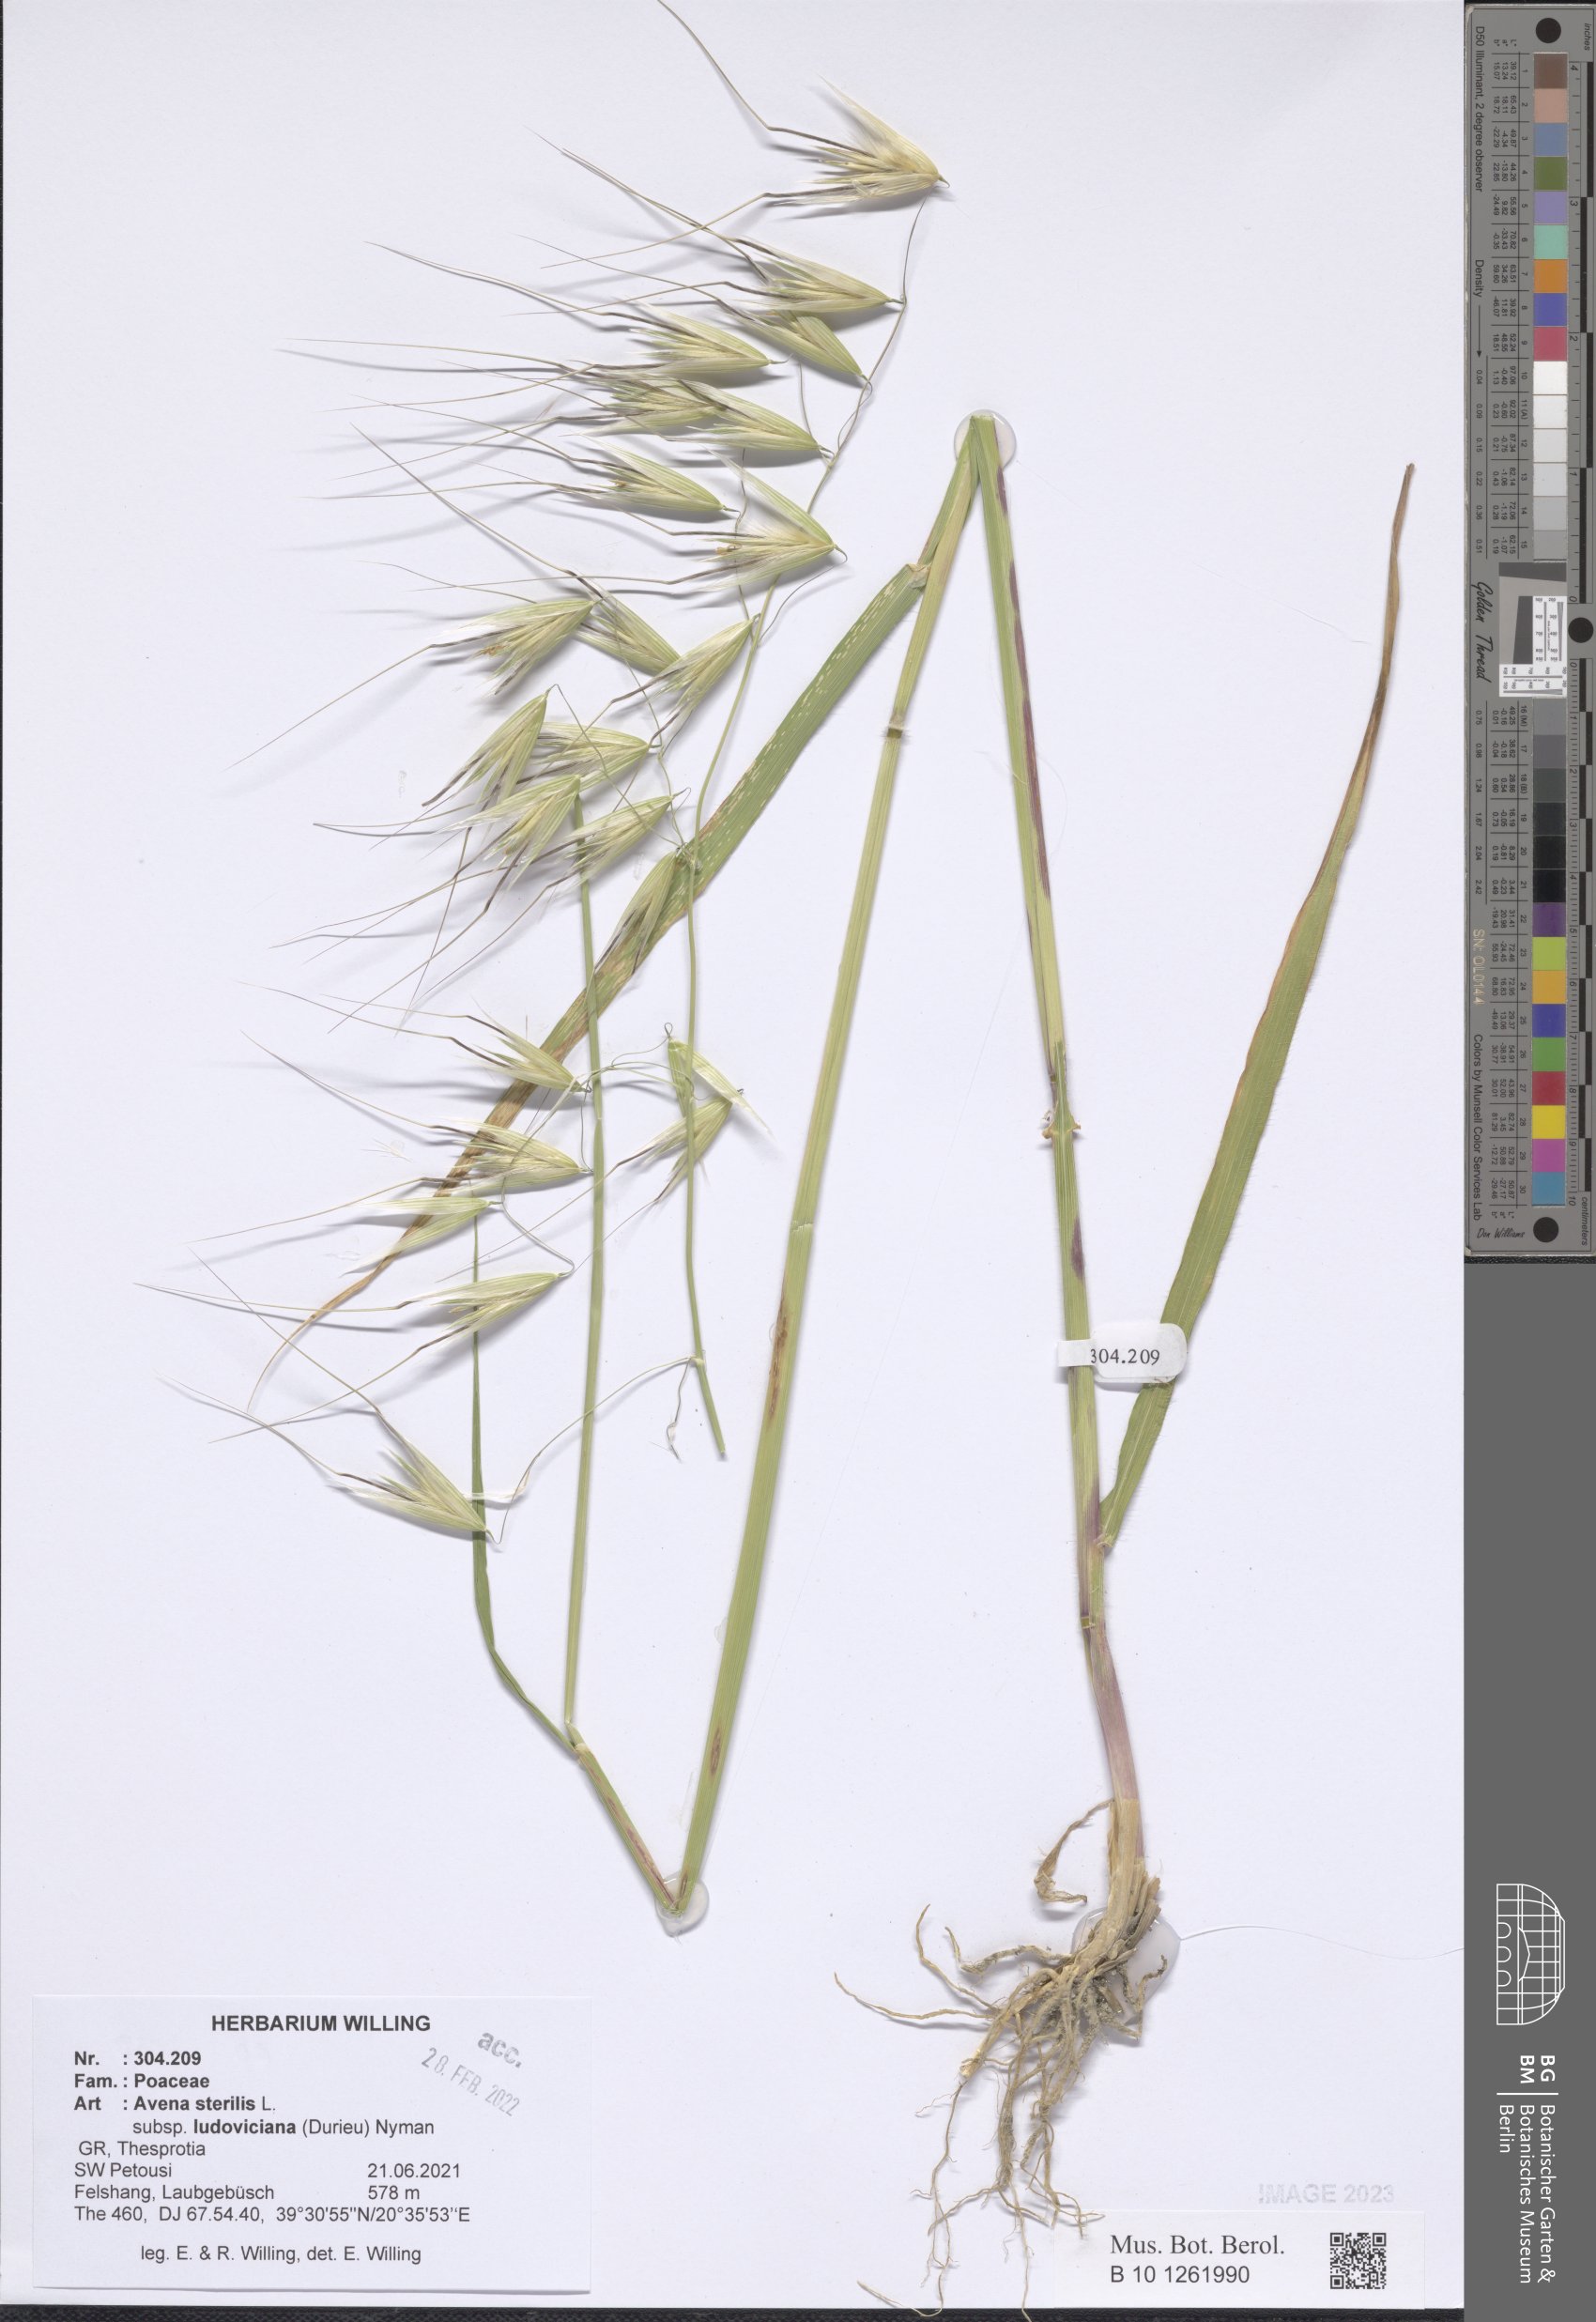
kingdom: Plantae
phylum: Tracheophyta
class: Liliopsida
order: Poales
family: Poaceae
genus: Avena
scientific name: Avena sterilis
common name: Animated oat
